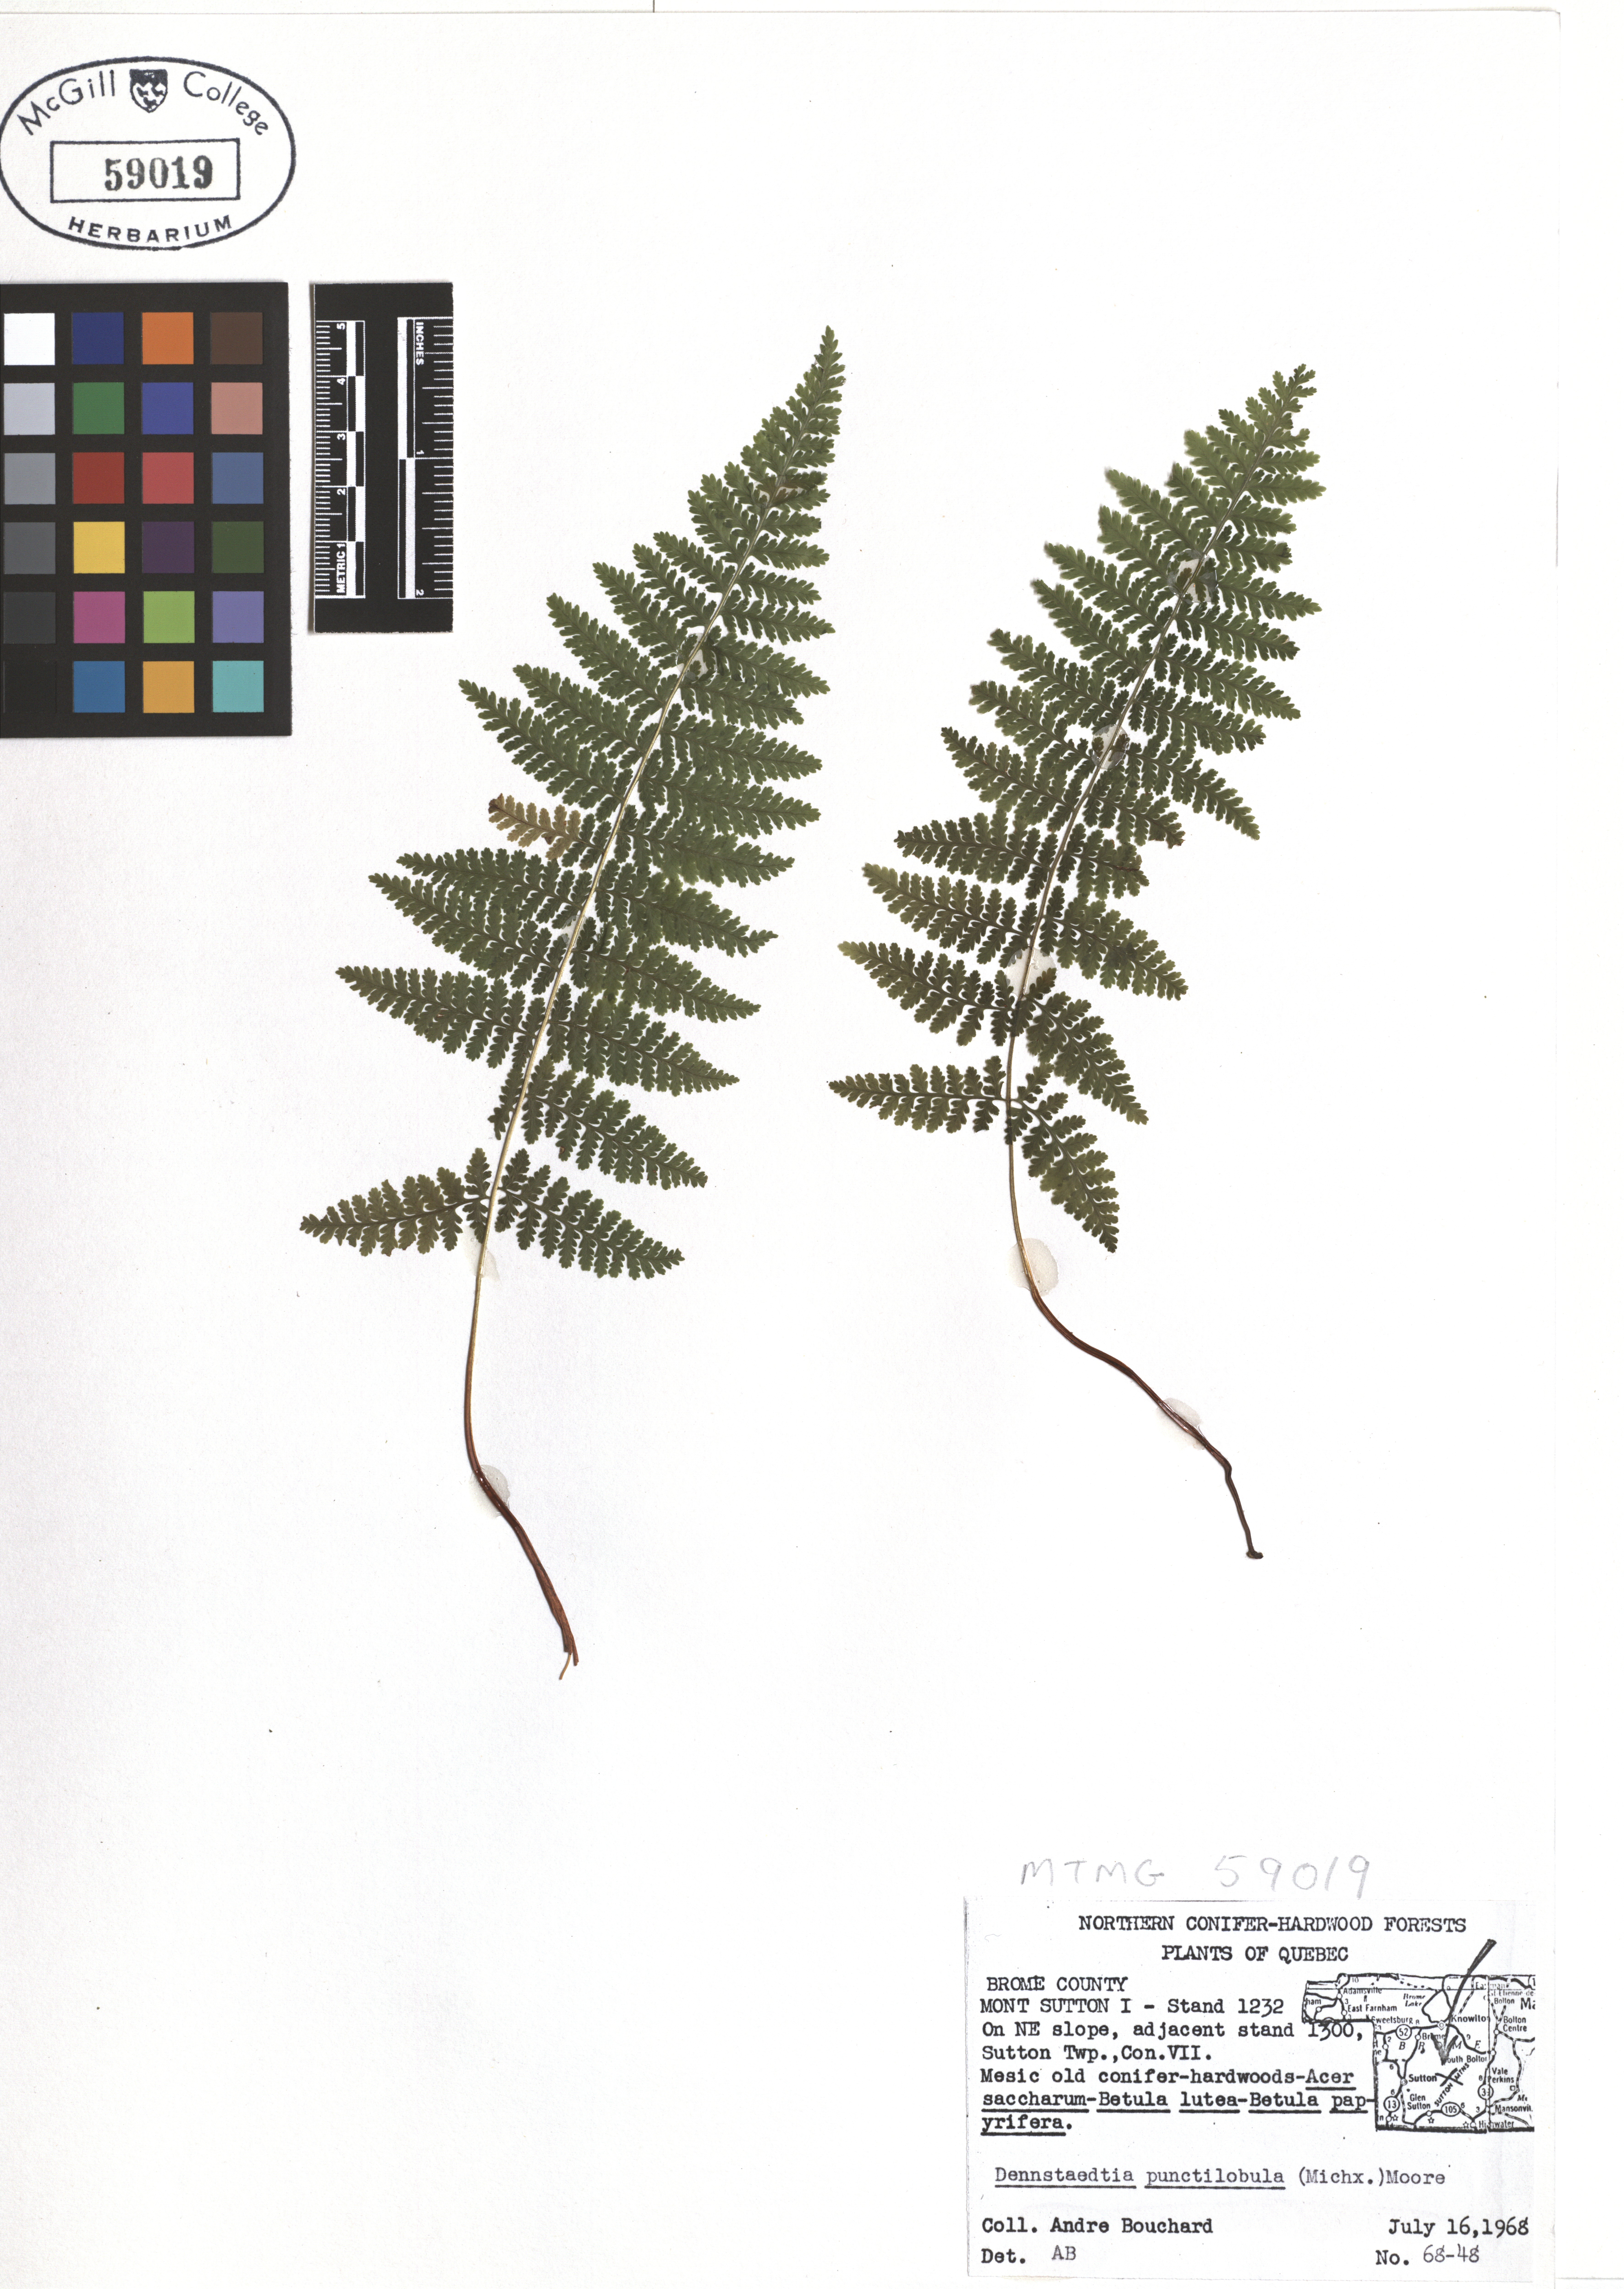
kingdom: Plantae
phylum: Tracheophyta
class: Polypodiopsida
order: Polypodiales
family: Dennstaedtiaceae
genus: Sitobolium
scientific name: Sitobolium punctilobum
